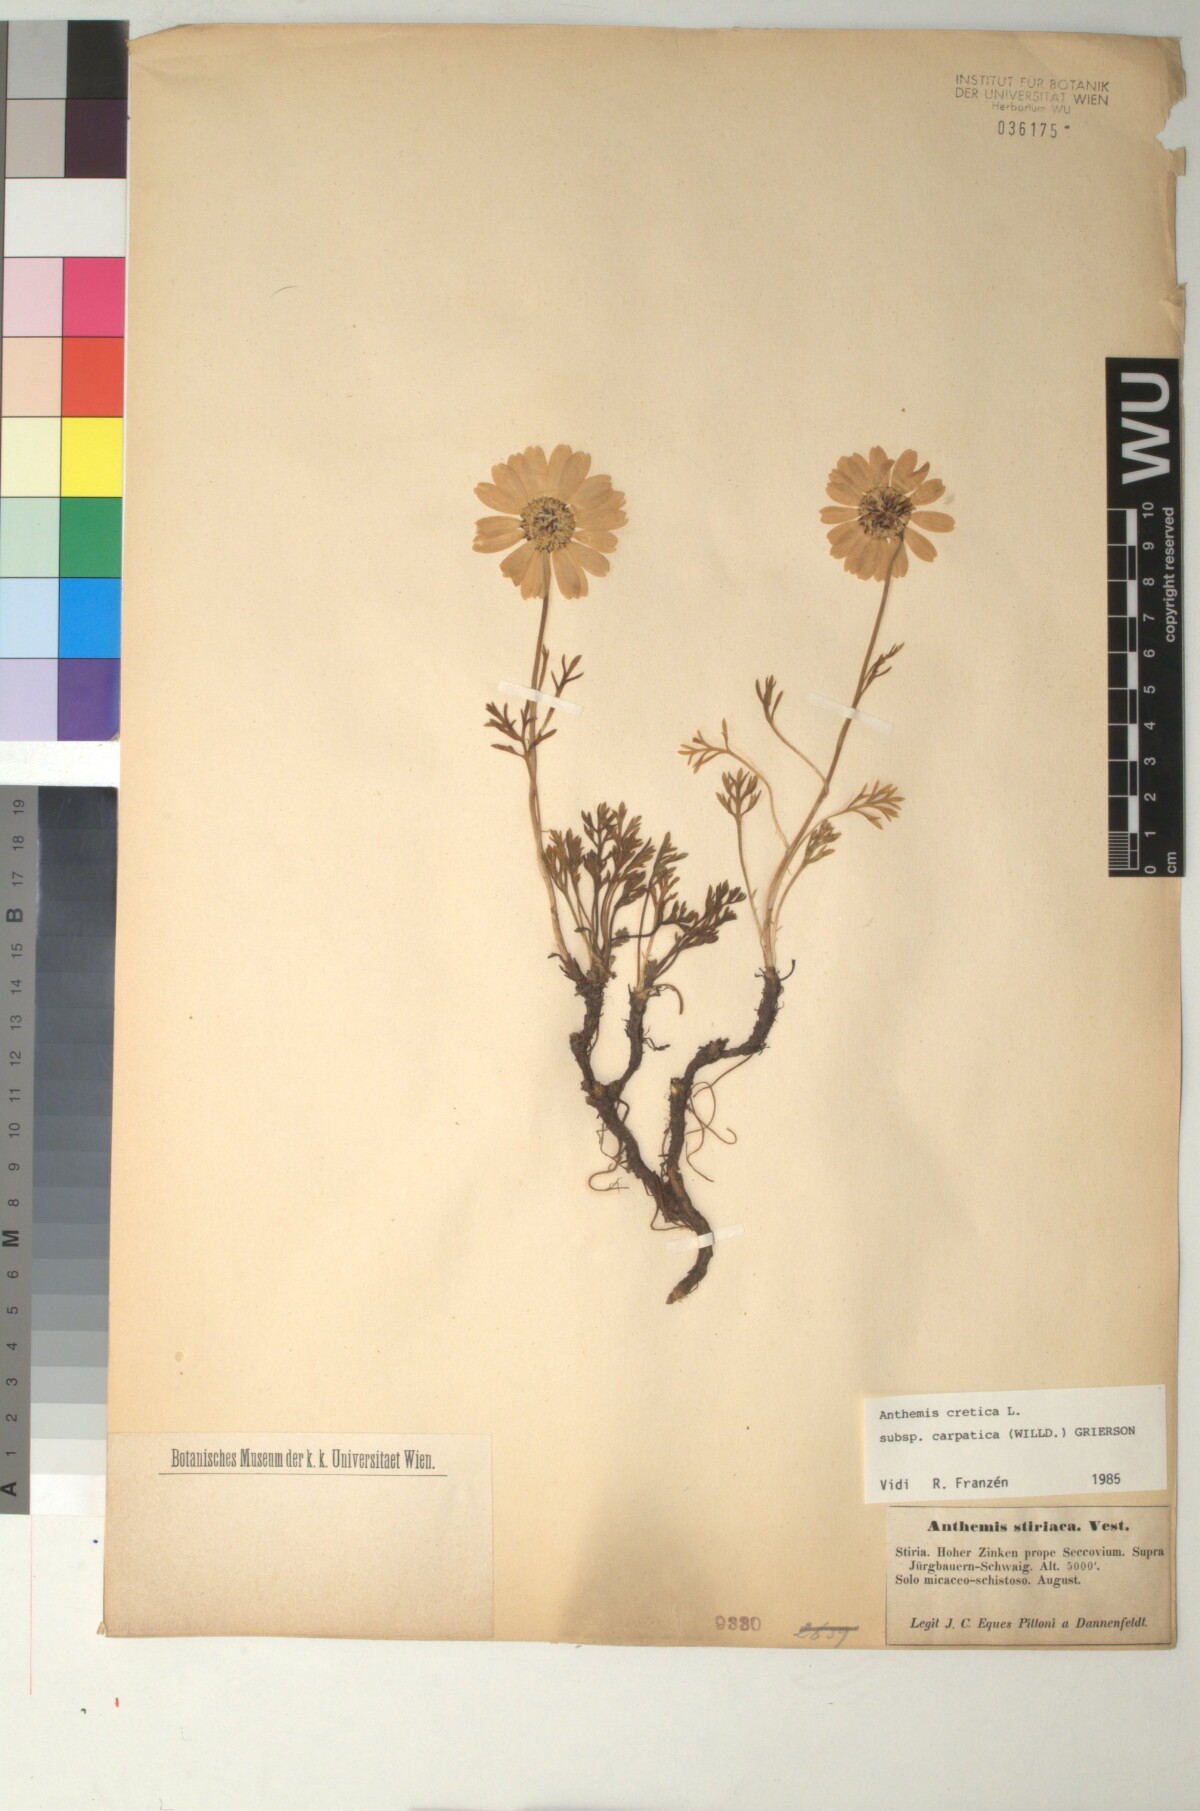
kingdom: Plantae
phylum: Tracheophyta
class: Magnoliopsida
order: Asterales
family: Asteraceae
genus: Anthemis
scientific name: Anthemis cretica
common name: Mountain dog-daisy
